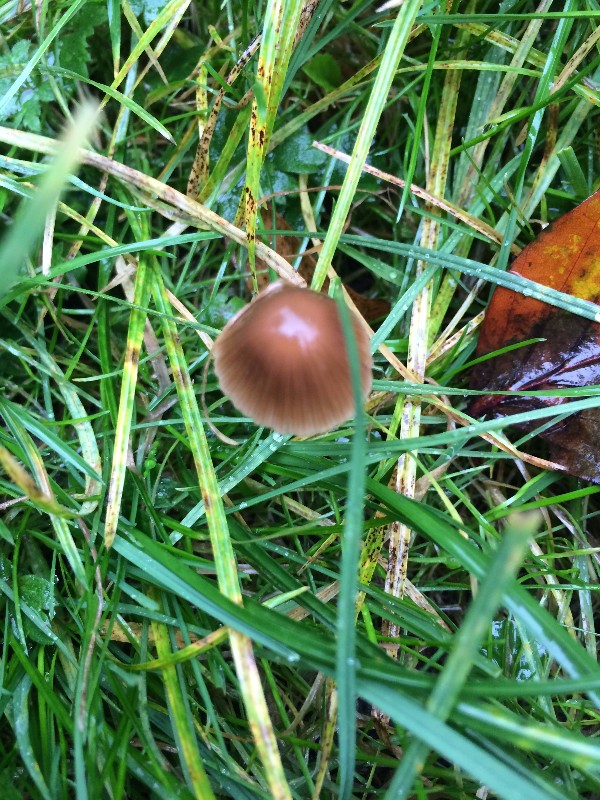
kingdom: Fungi
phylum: Basidiomycota
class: Agaricomycetes
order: Agaricales
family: Psathyrellaceae
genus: Psathyrella
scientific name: Psathyrella
